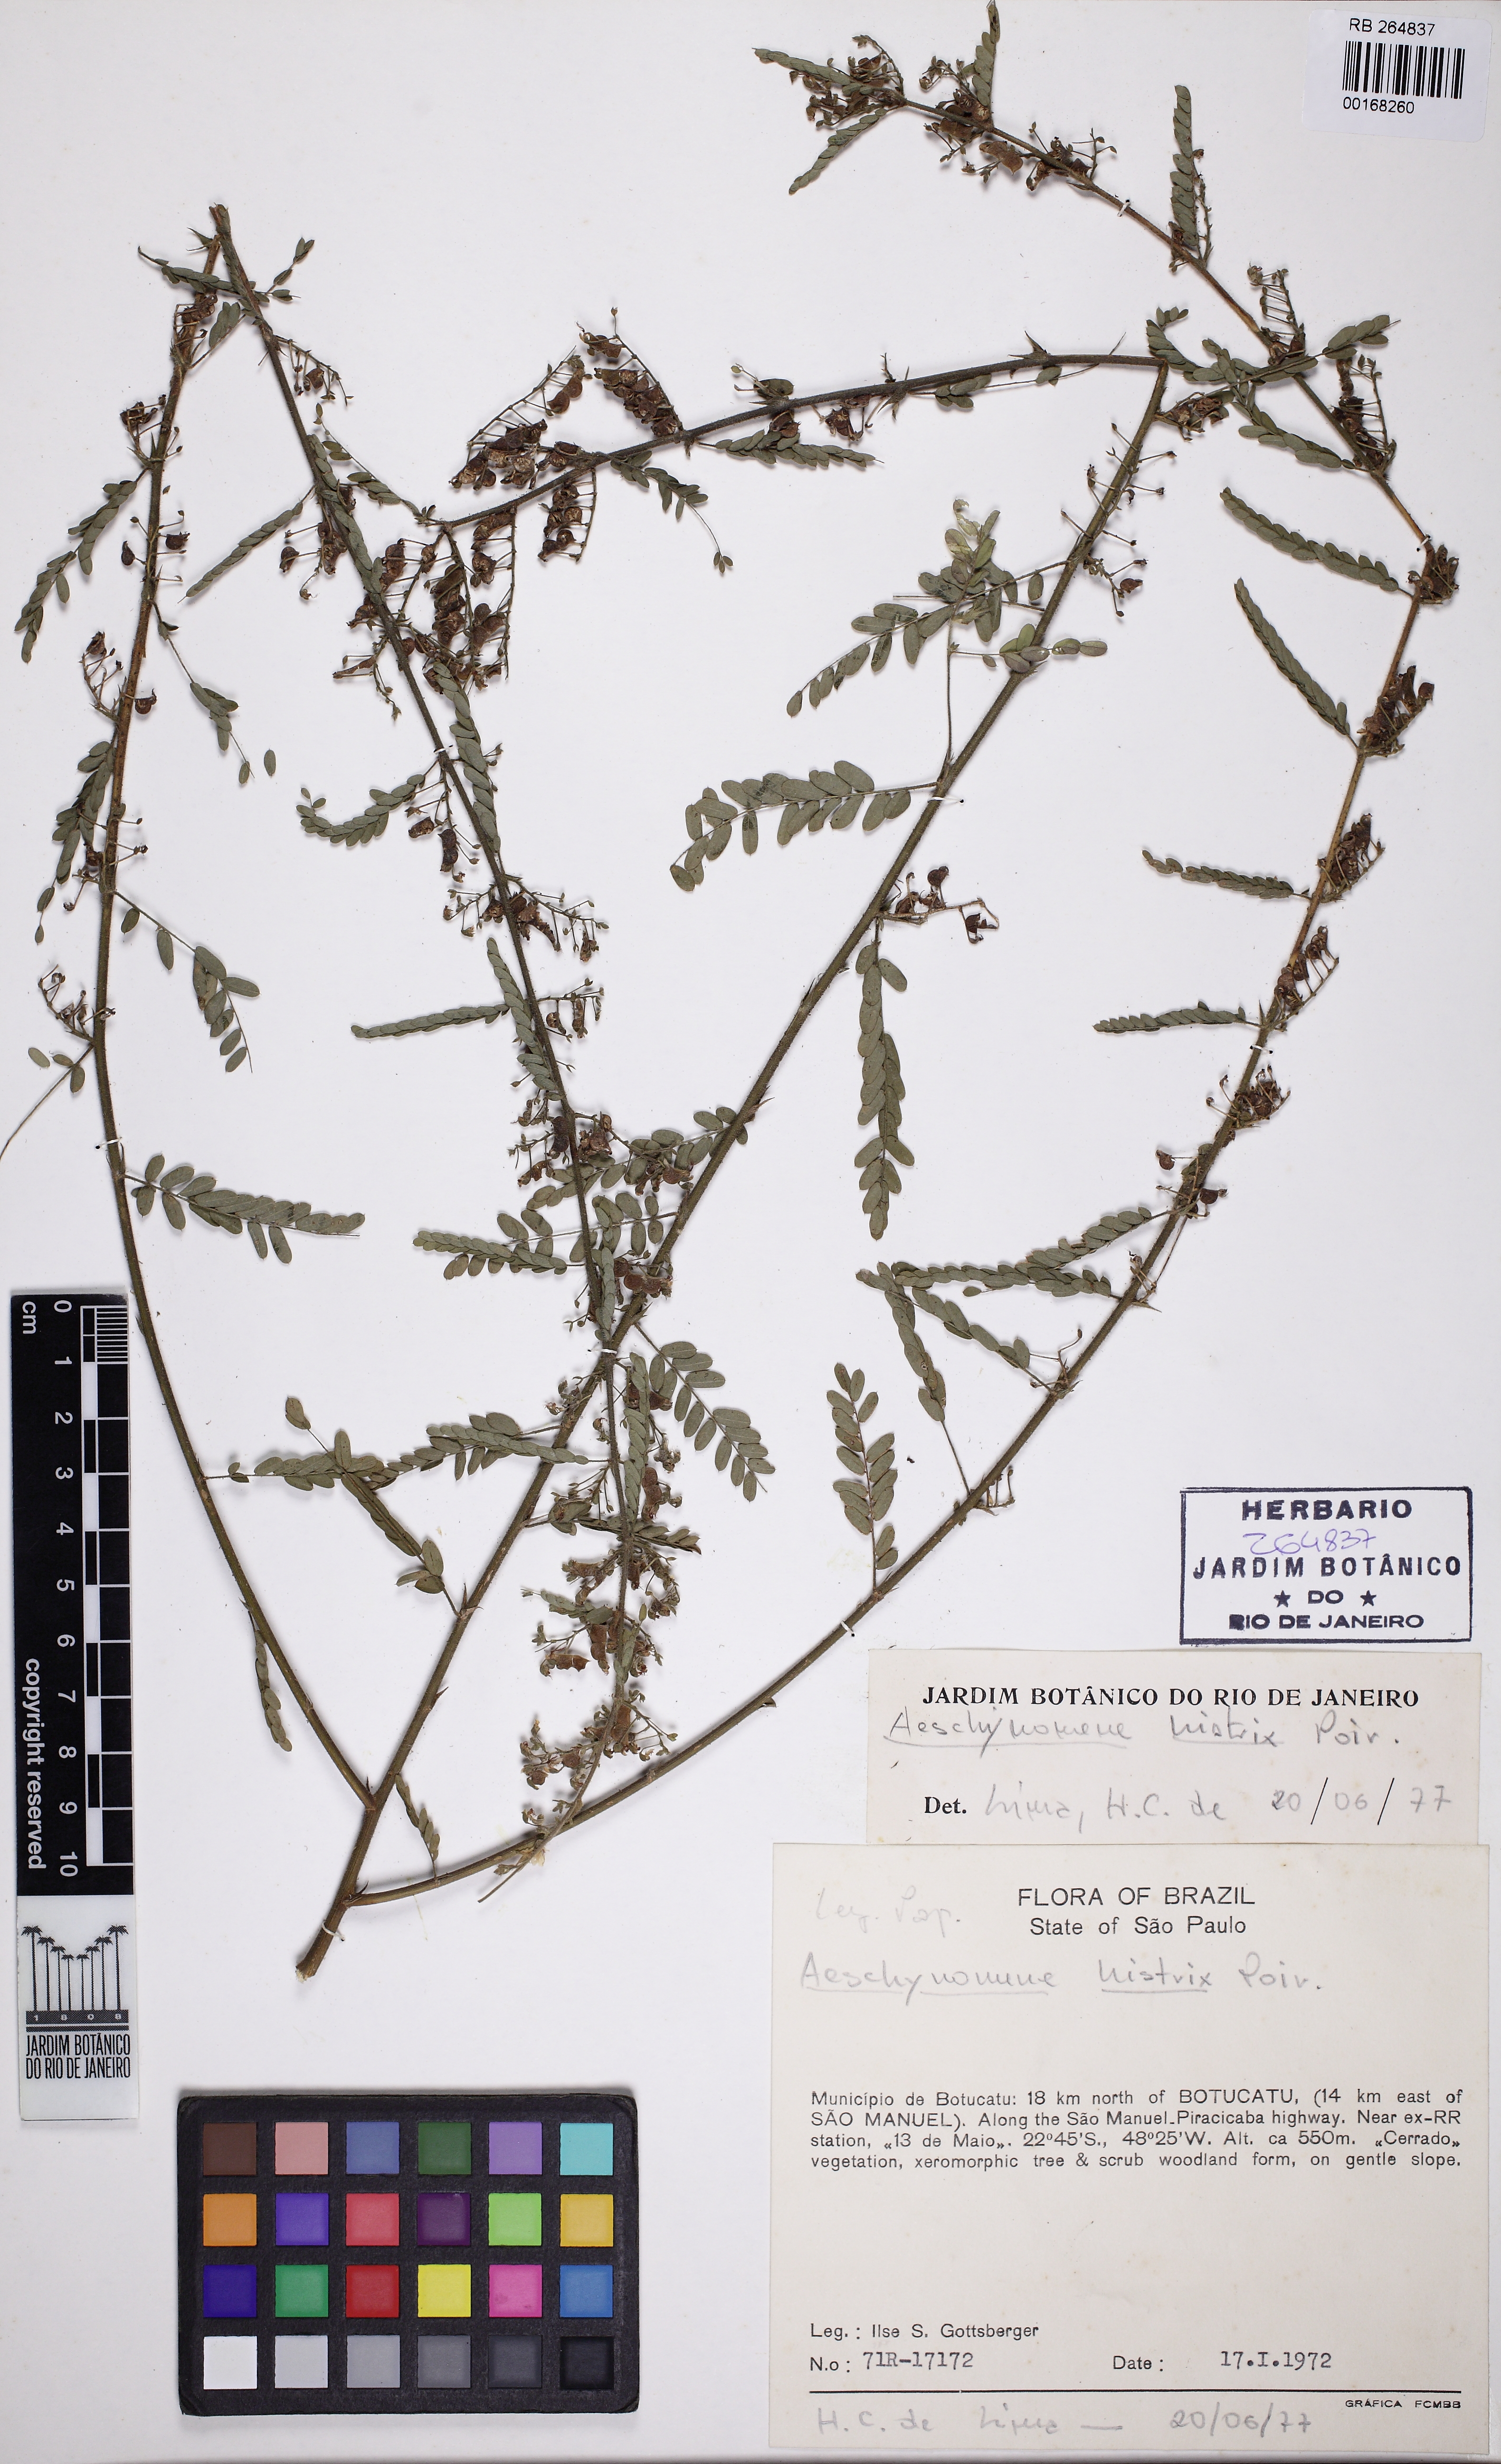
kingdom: Plantae
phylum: Tracheophyta
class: Magnoliopsida
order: Fabales
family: Fabaceae
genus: Ctenodon
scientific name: Ctenodon histrix
